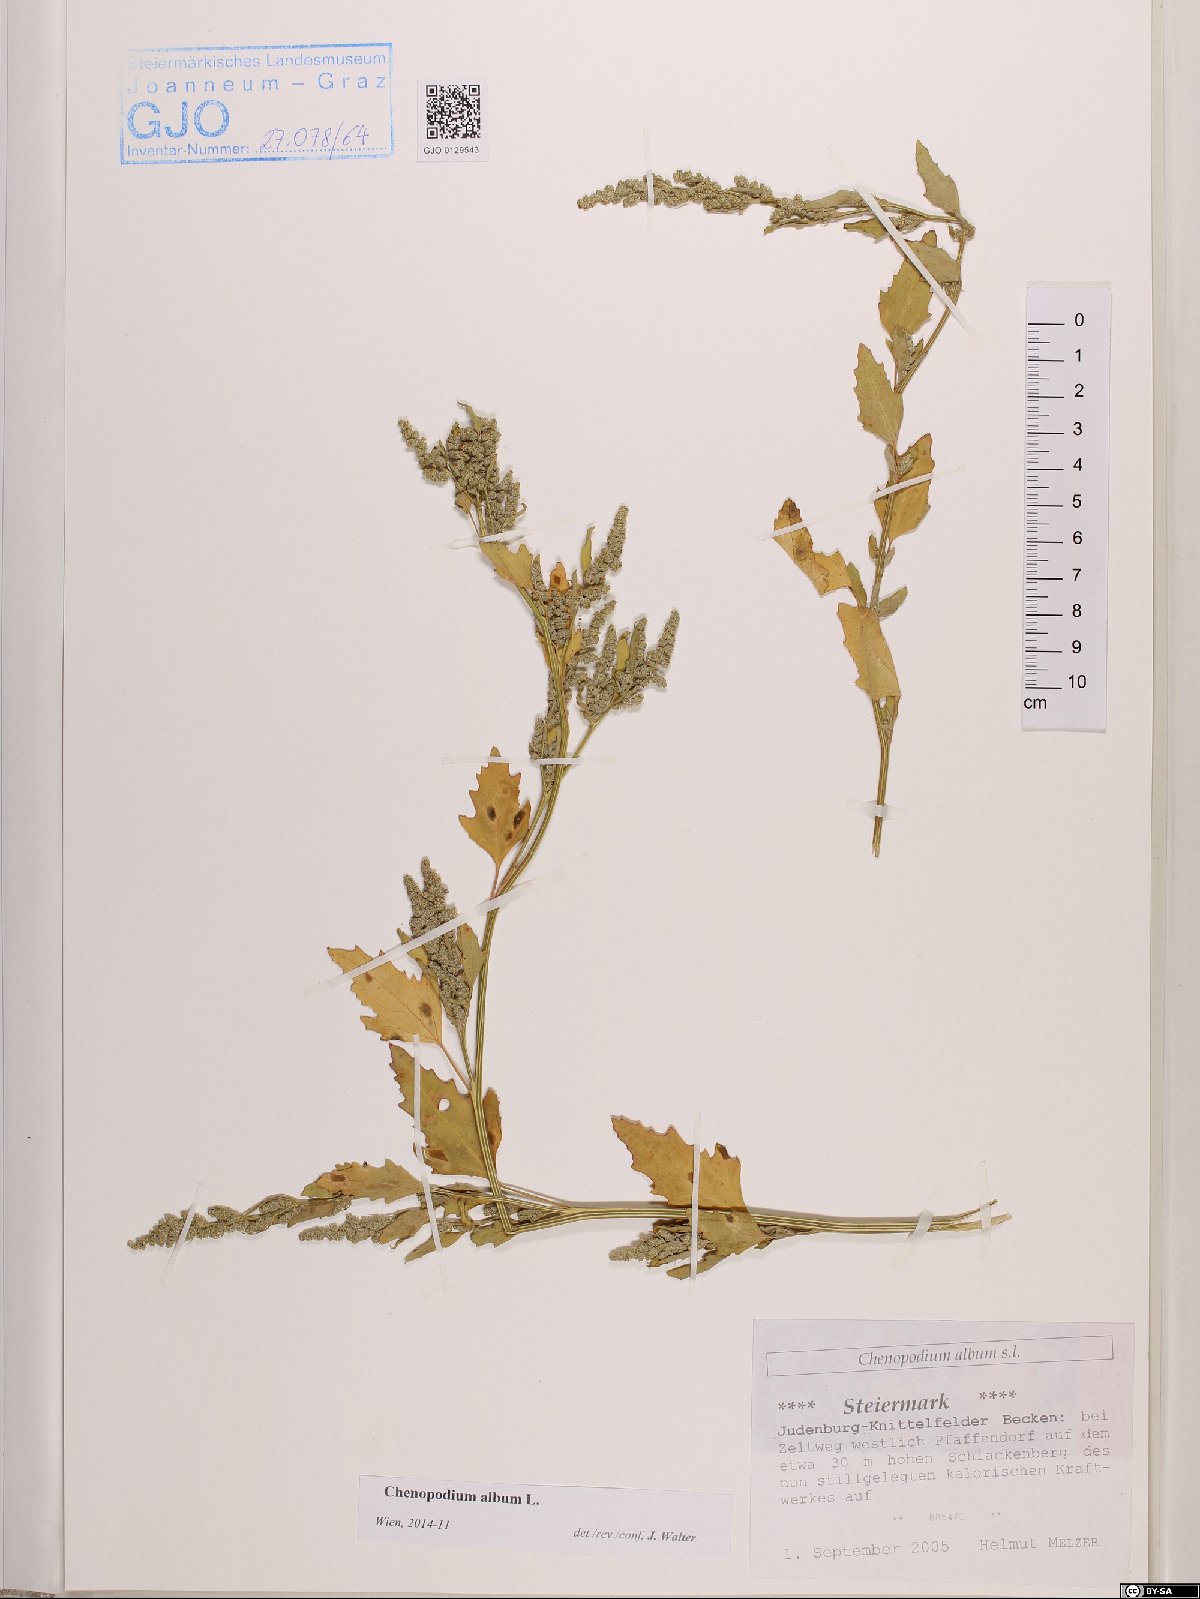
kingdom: Plantae
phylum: Tracheophyta
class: Magnoliopsida
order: Caryophyllales
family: Amaranthaceae
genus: Chenopodium
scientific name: Chenopodium album
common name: Fat-hen
